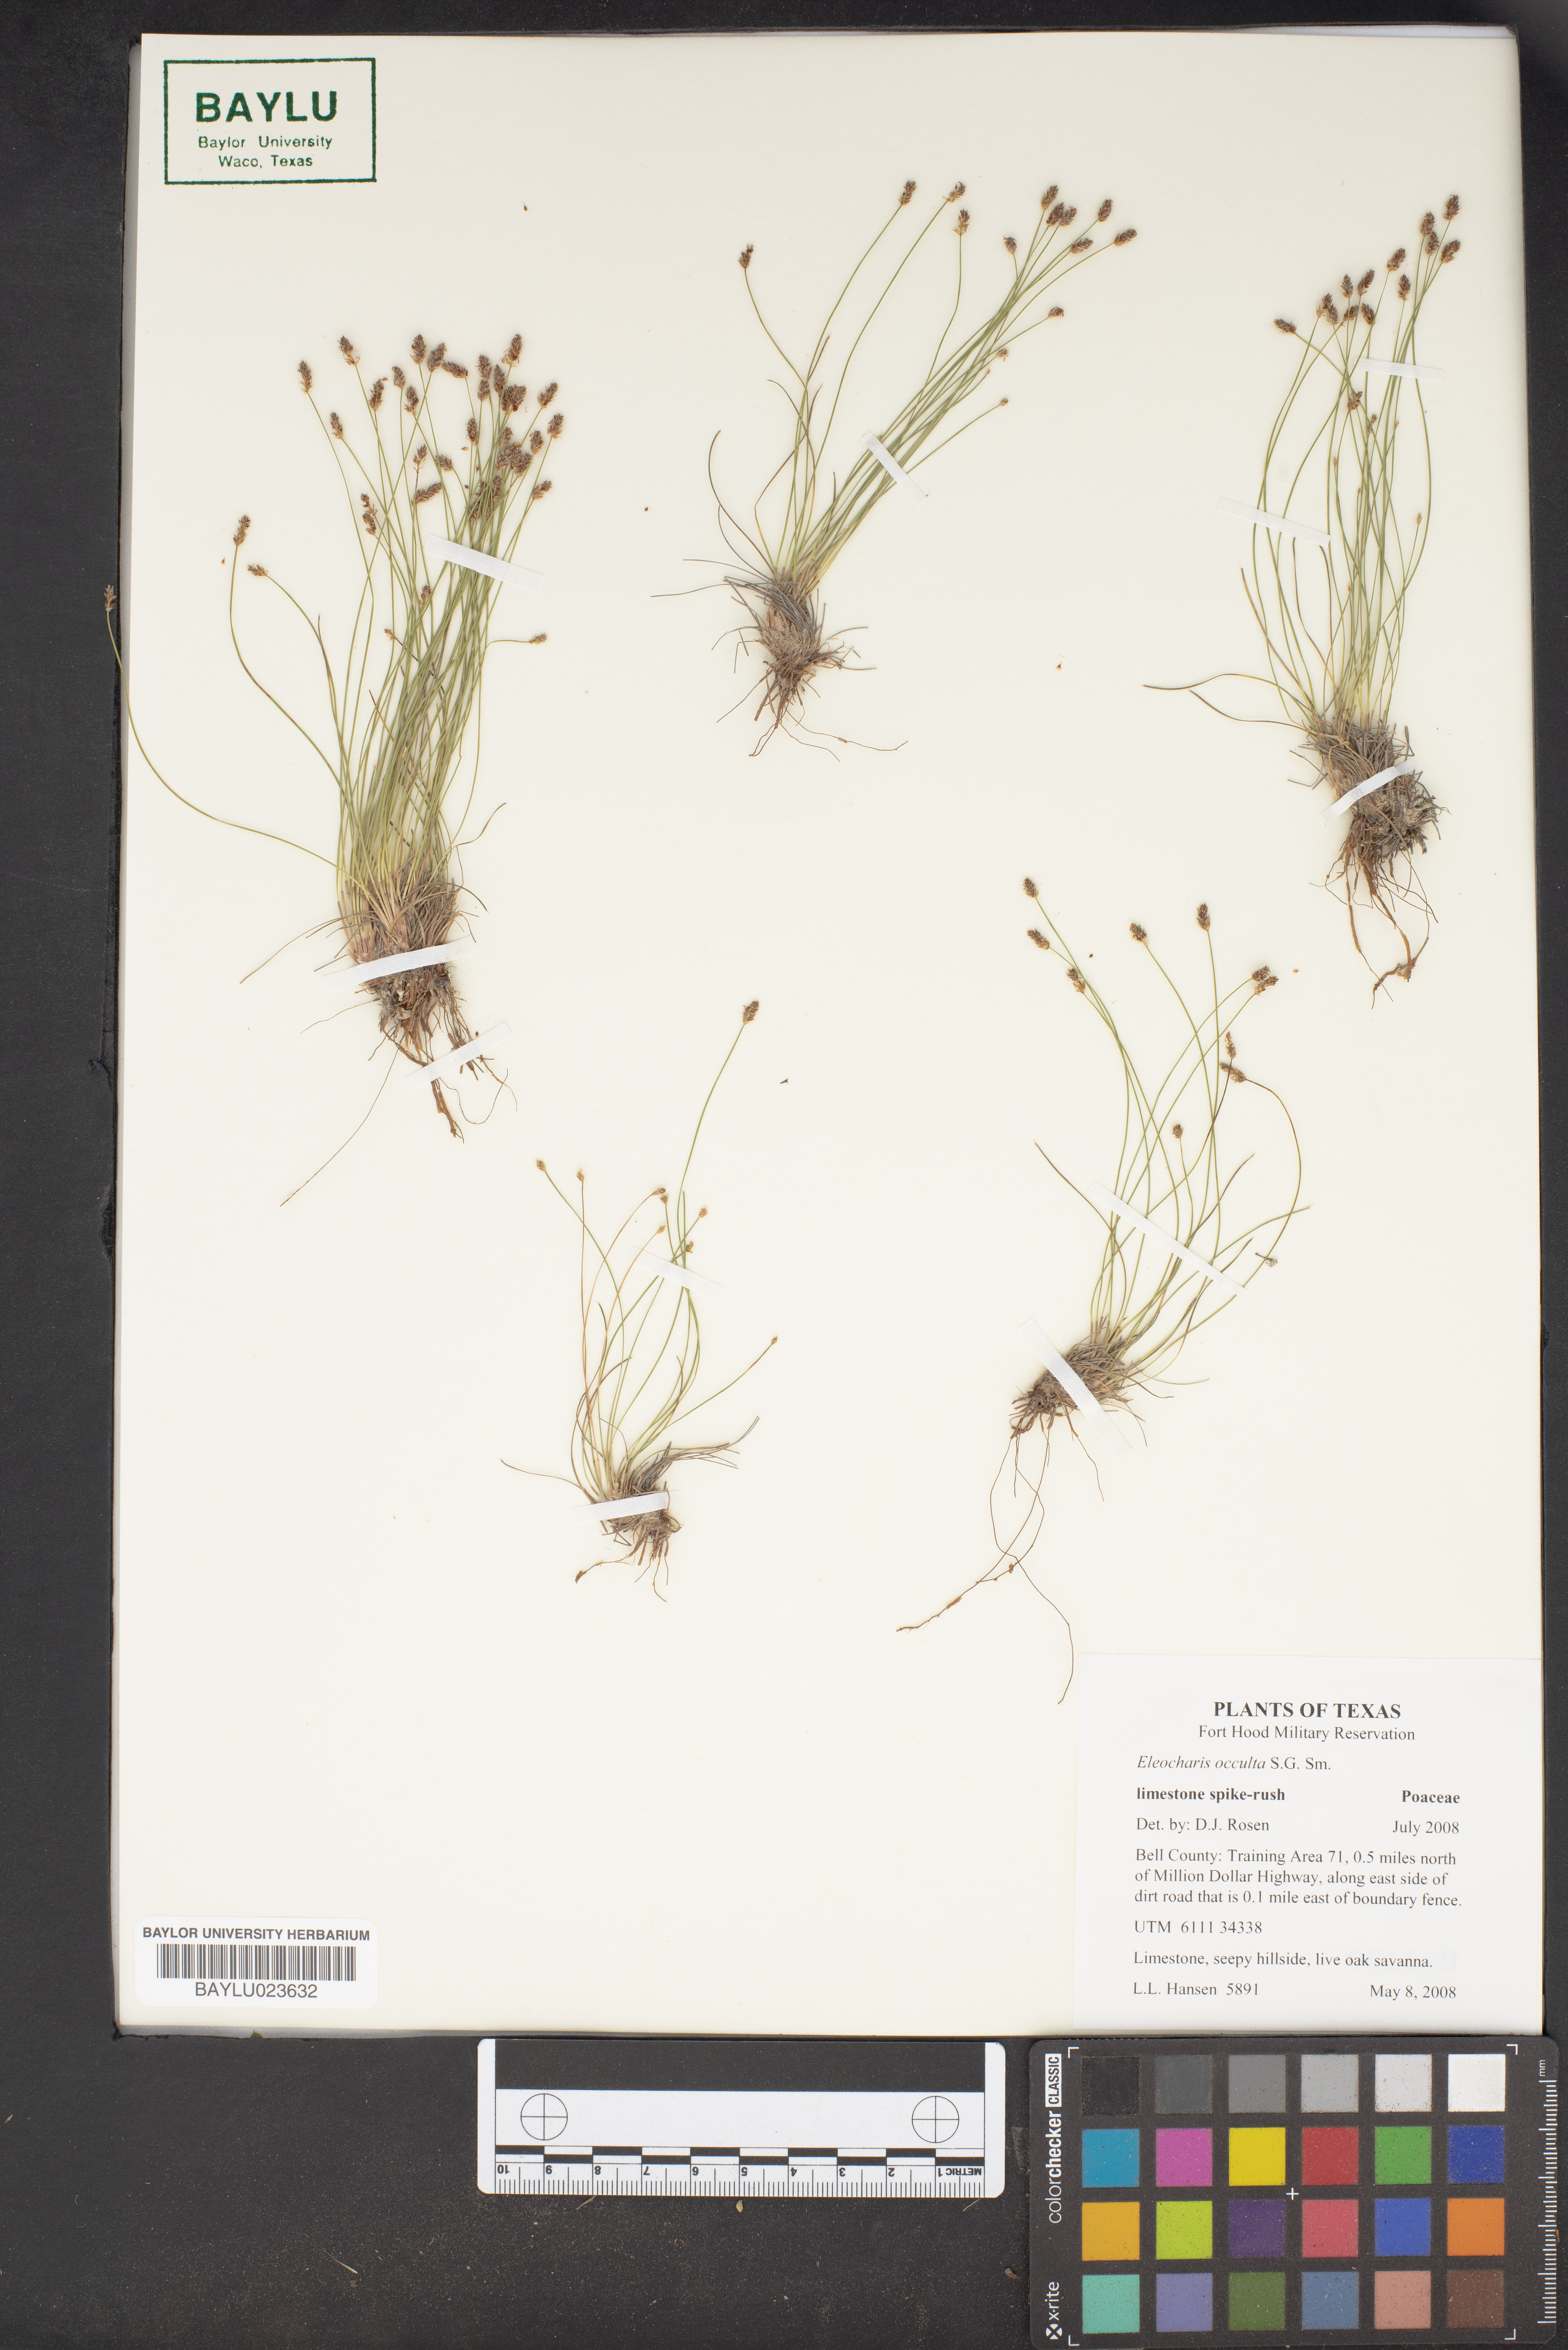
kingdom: Plantae
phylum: Tracheophyta
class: Liliopsida
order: Poales
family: Cyperaceae
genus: Eleocharis
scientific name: Eleocharis occulta
